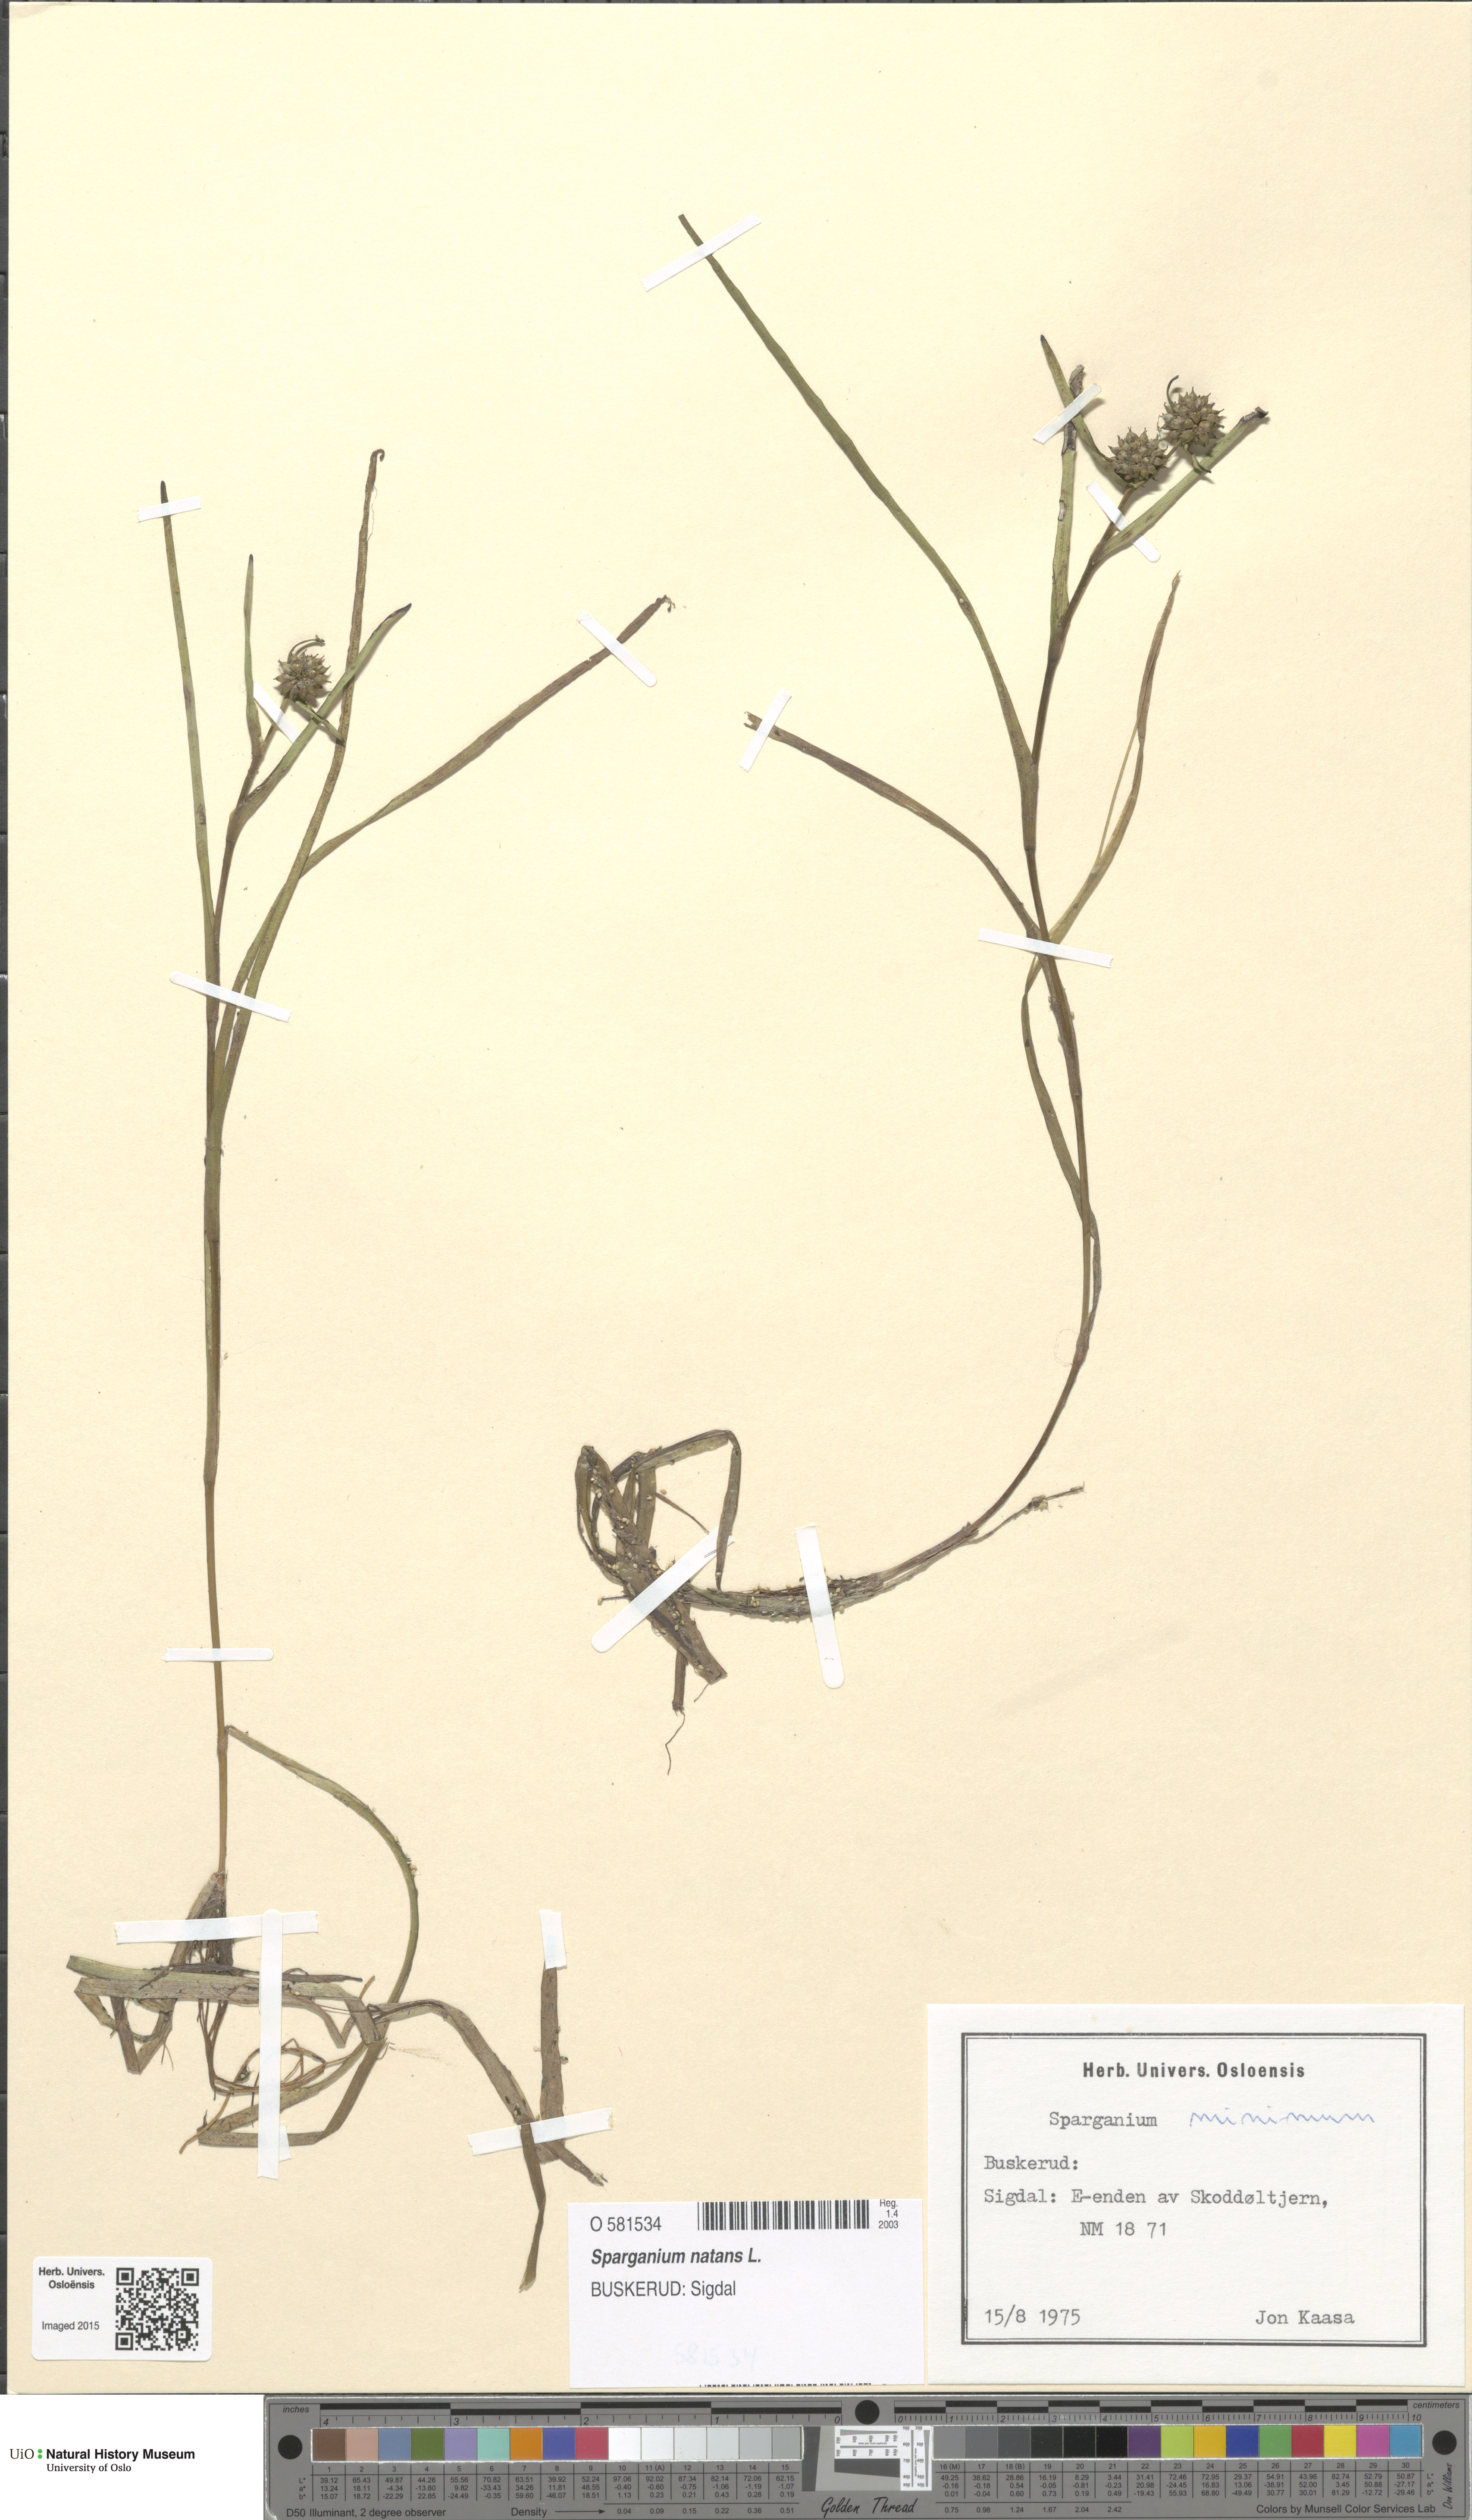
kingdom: Plantae
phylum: Tracheophyta
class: Liliopsida
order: Poales
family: Typhaceae
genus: Sparganium
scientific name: Sparganium natans
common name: Least bur-reed
